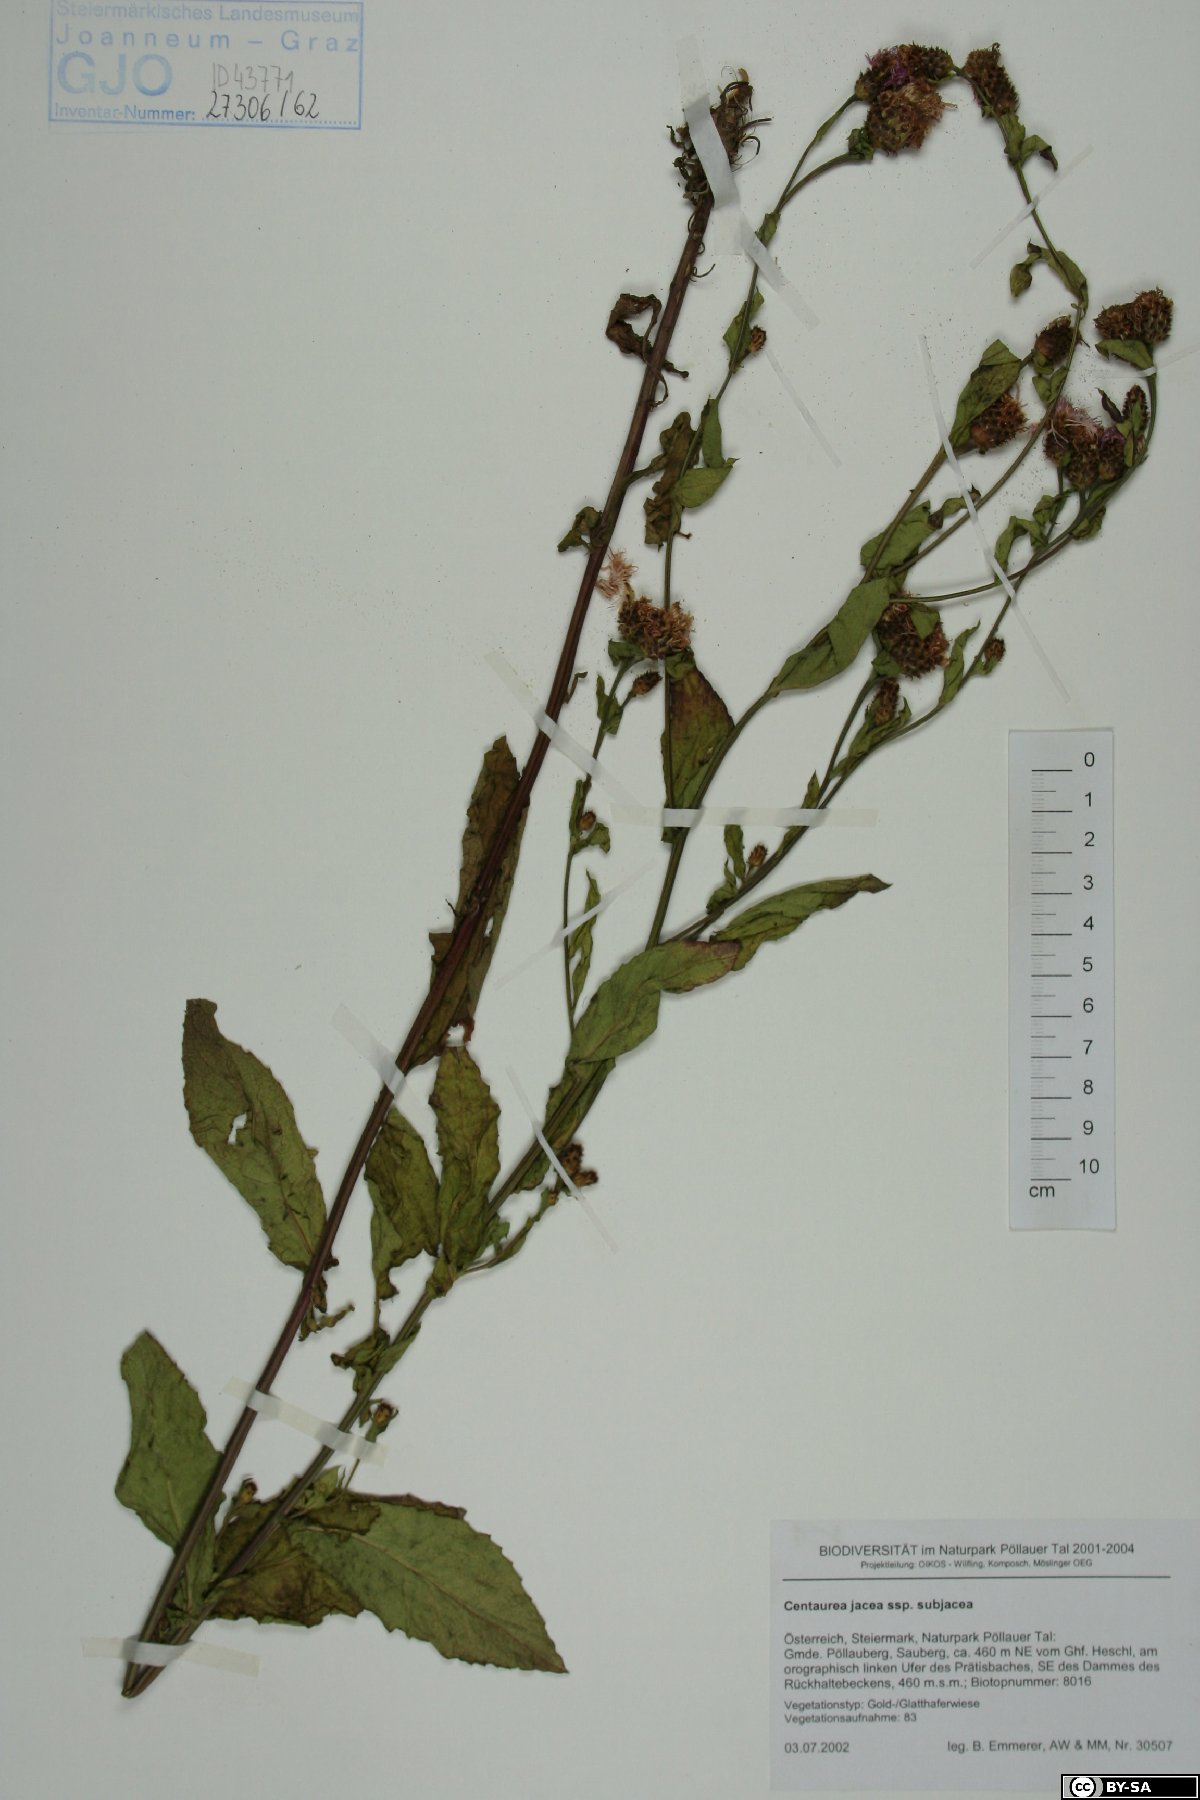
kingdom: Plantae
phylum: Tracheophyta
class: Magnoliopsida
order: Asterales
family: Asteraceae
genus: Centaurea
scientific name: Centaurea preissmannii
